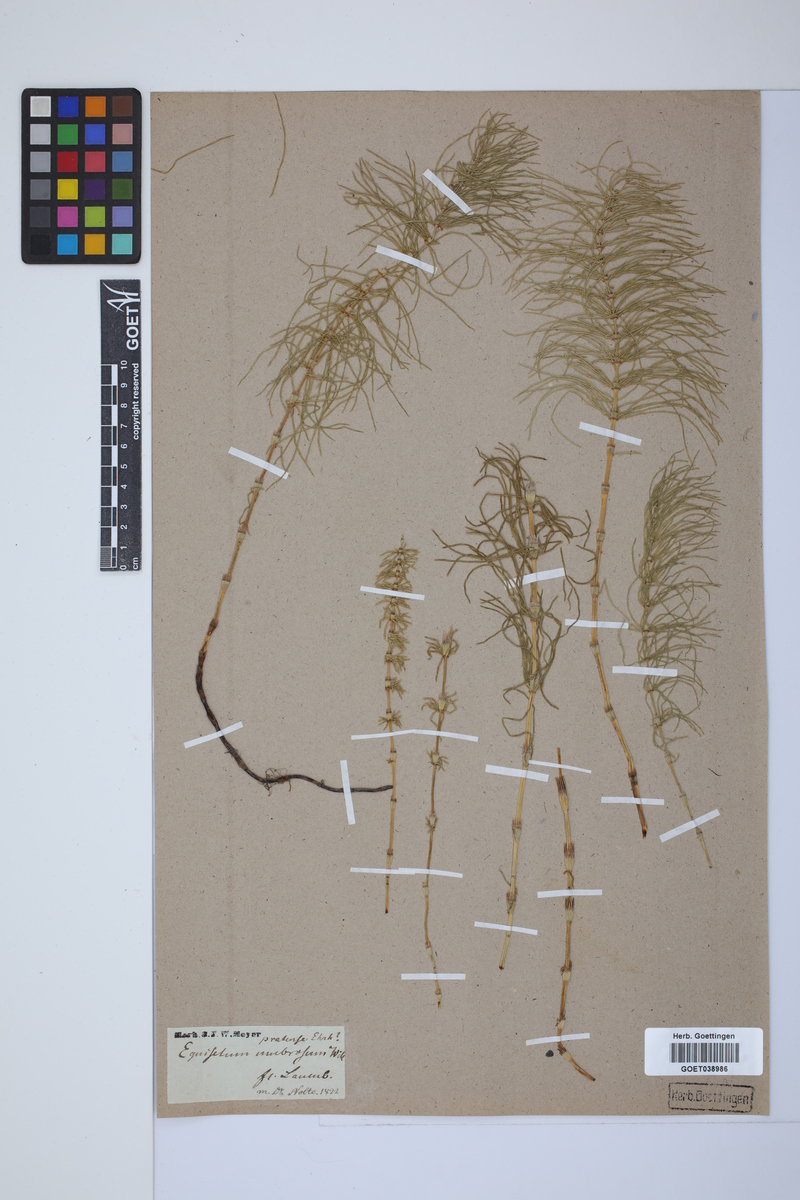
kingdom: Plantae
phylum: Tracheophyta
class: Polypodiopsida
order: Equisetales
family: Equisetaceae
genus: Equisetum
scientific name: Equisetum pratense
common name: Meadow horsetail
